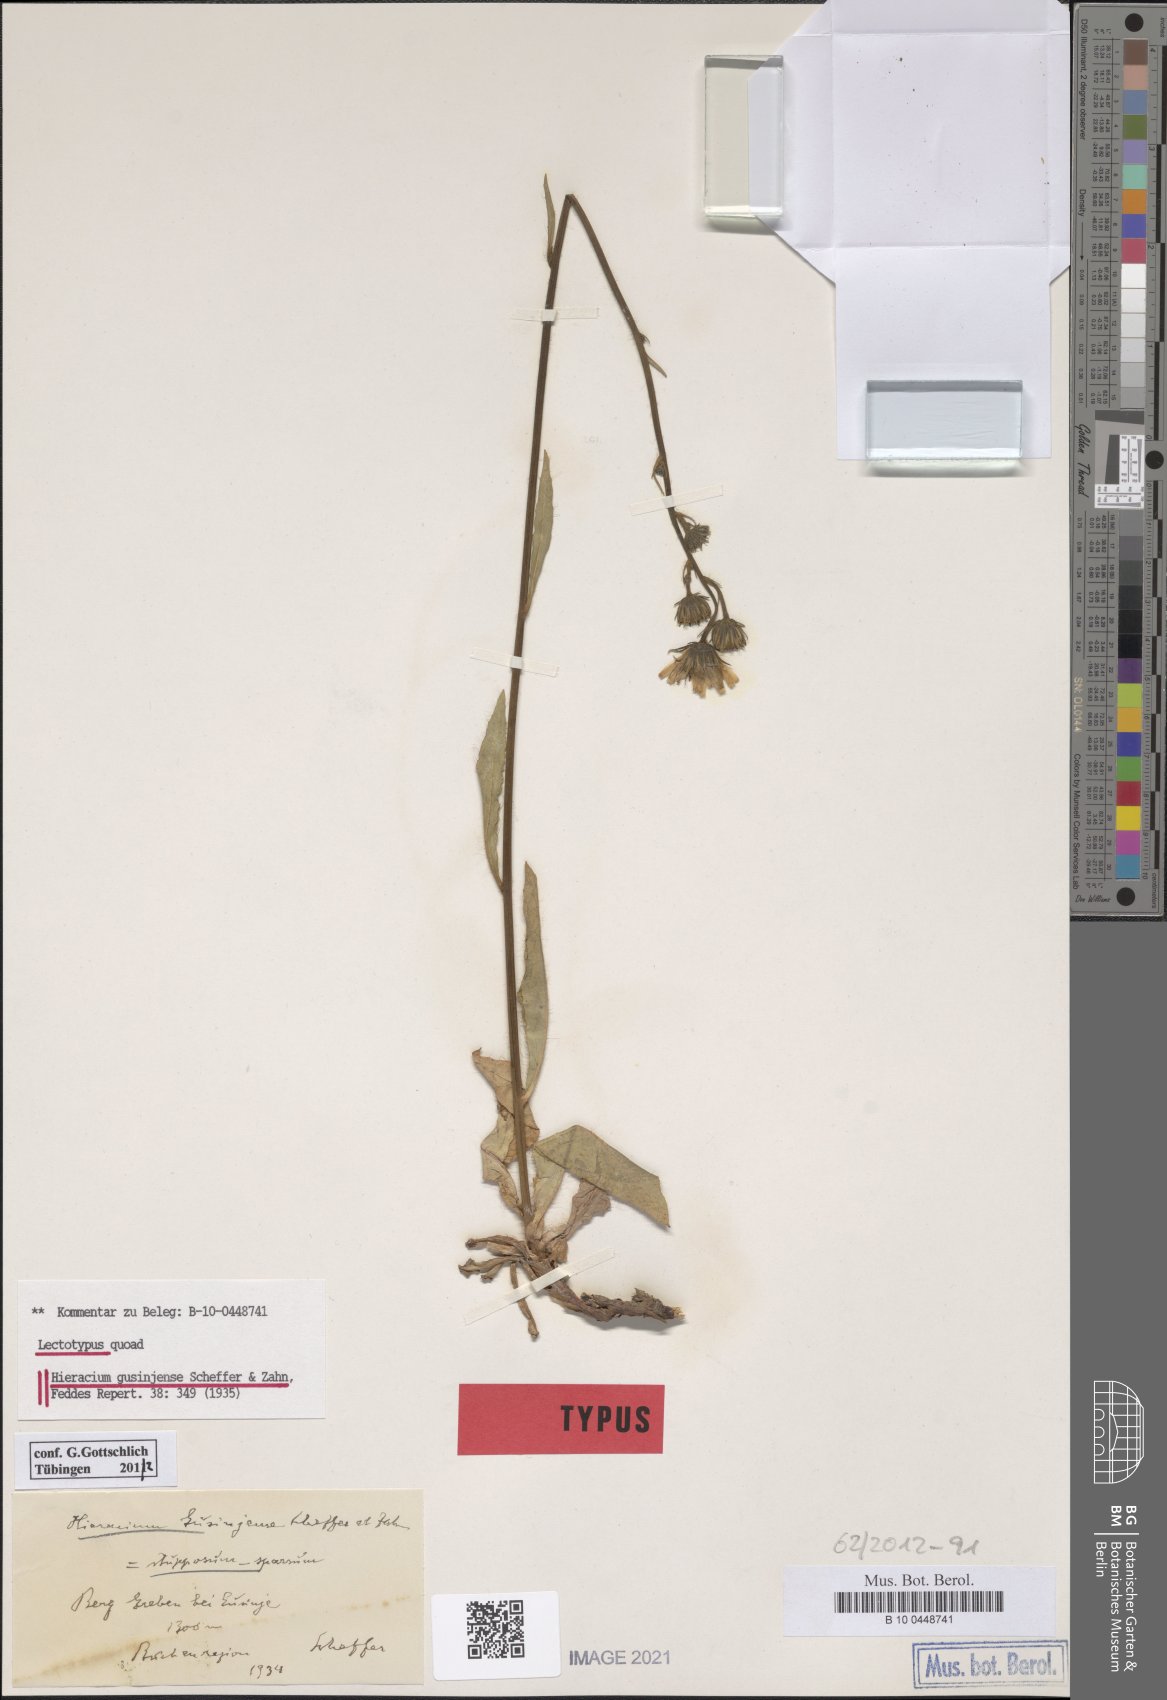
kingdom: Plantae
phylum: Tracheophyta
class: Magnoliopsida
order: Asterales
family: Asteraceae
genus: Hieracium
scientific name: Hieracium gusinjense
